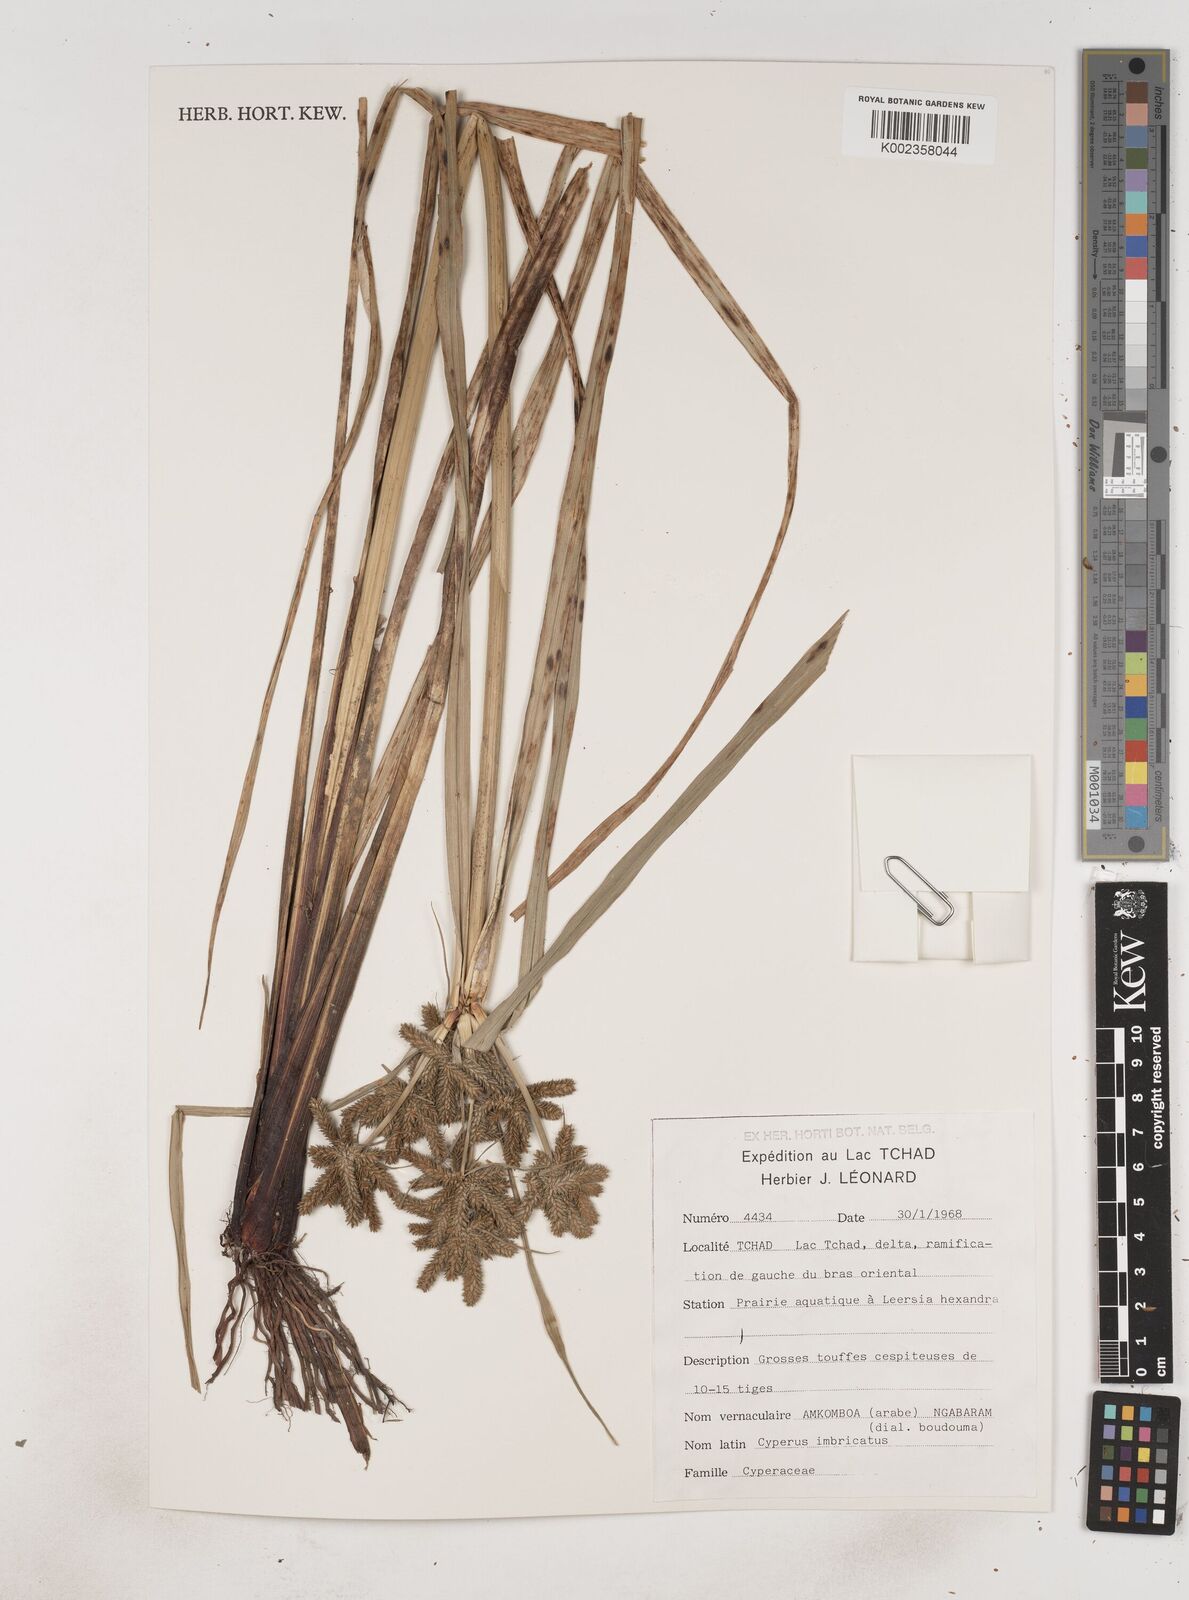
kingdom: Plantae
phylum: Tracheophyta
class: Liliopsida
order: Poales
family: Cyperaceae
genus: Cyperus
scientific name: Cyperus imbricatus
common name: Shingle flatsedge
